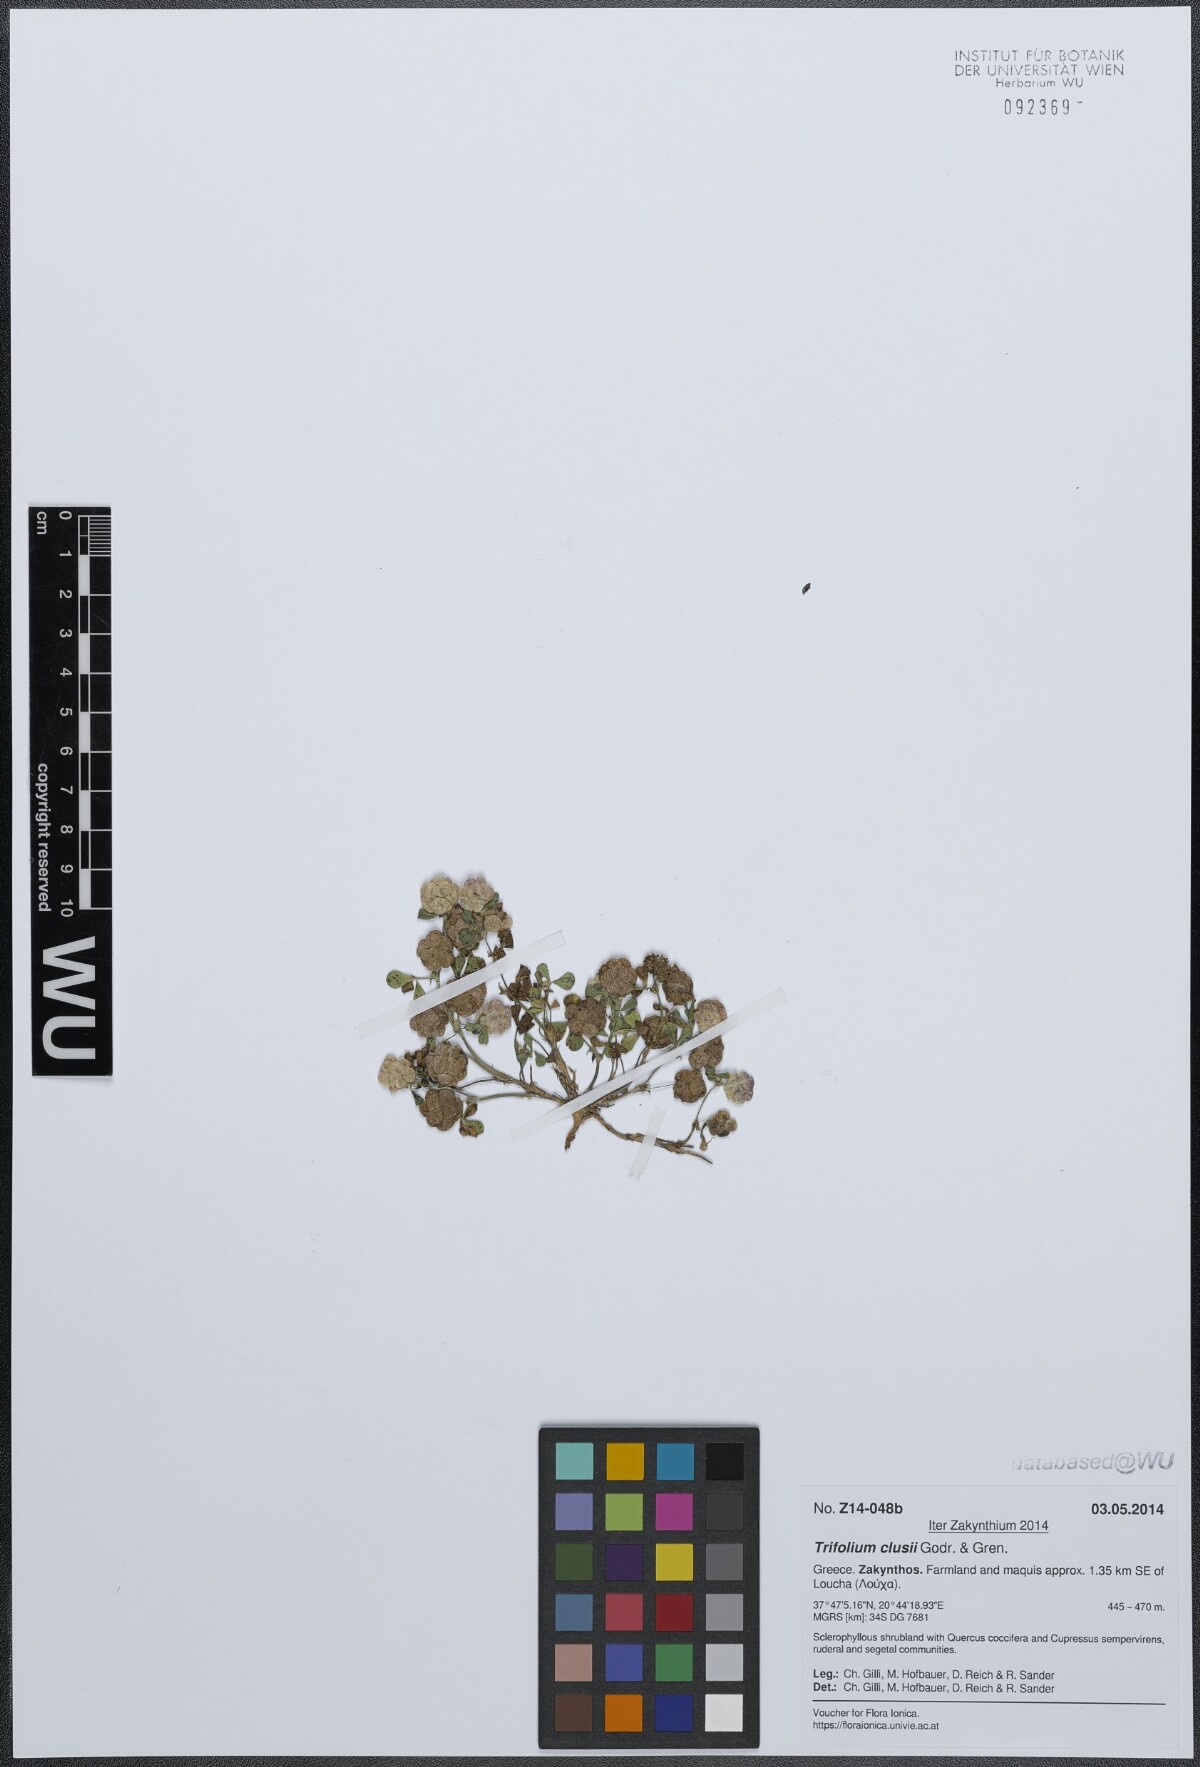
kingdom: Plantae
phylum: Tracheophyta
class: Magnoliopsida
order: Fabales
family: Fabaceae
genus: Trifolium
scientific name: Trifolium clusii
